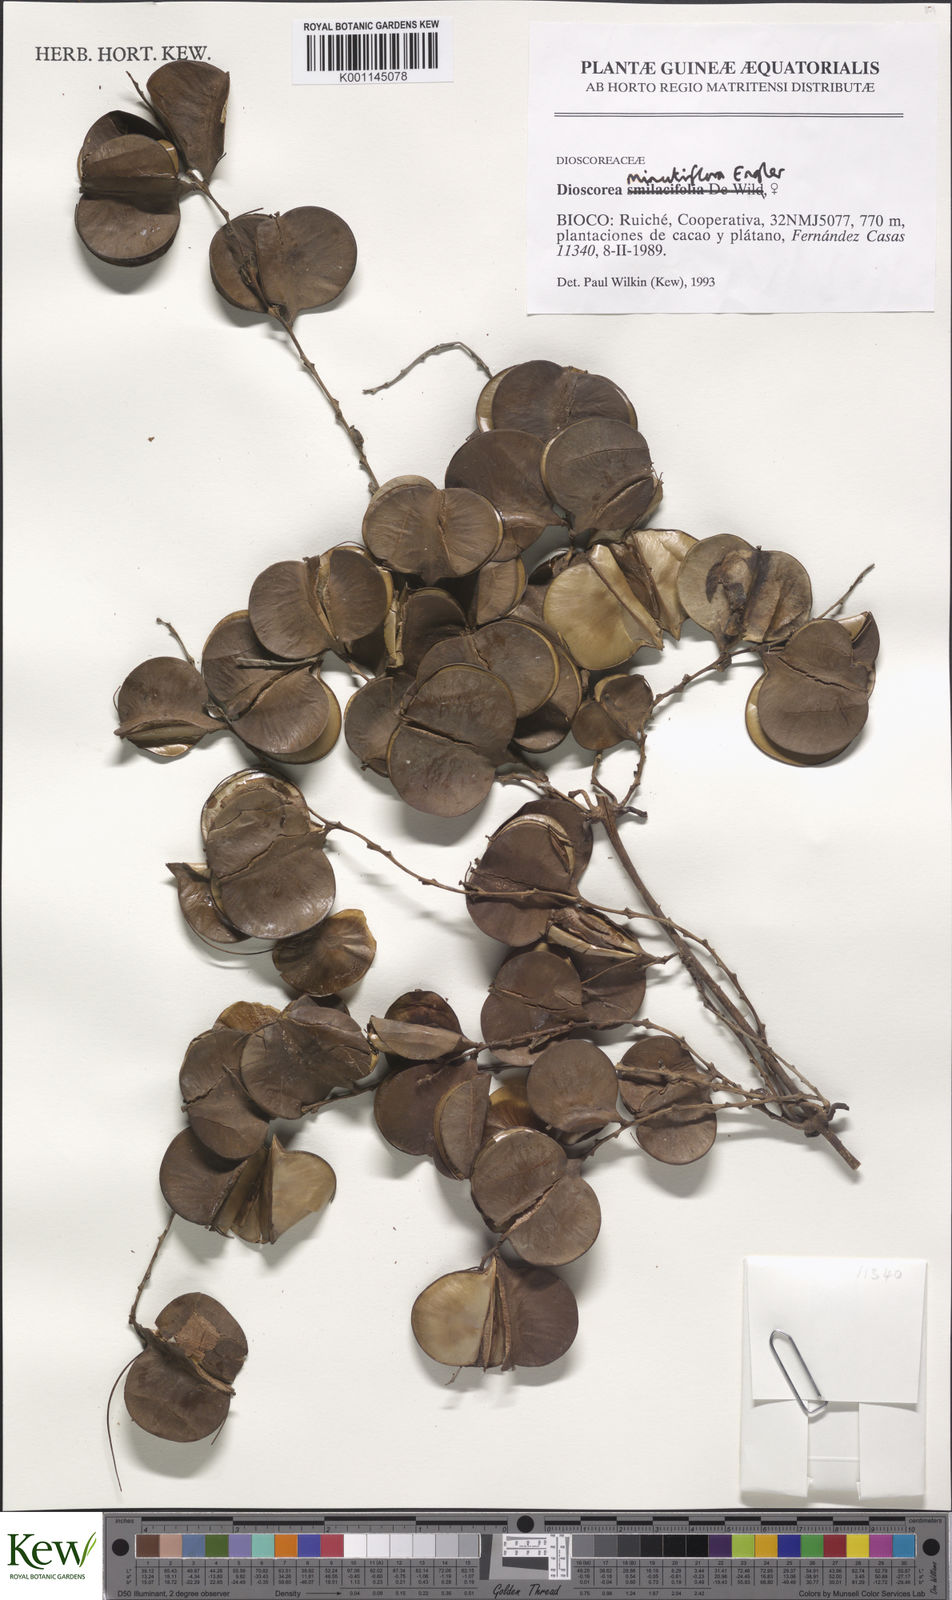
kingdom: Plantae
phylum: Tracheophyta
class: Liliopsida
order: Dioscoreales
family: Dioscoreaceae
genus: Dioscorea
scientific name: Dioscorea minutiflora
